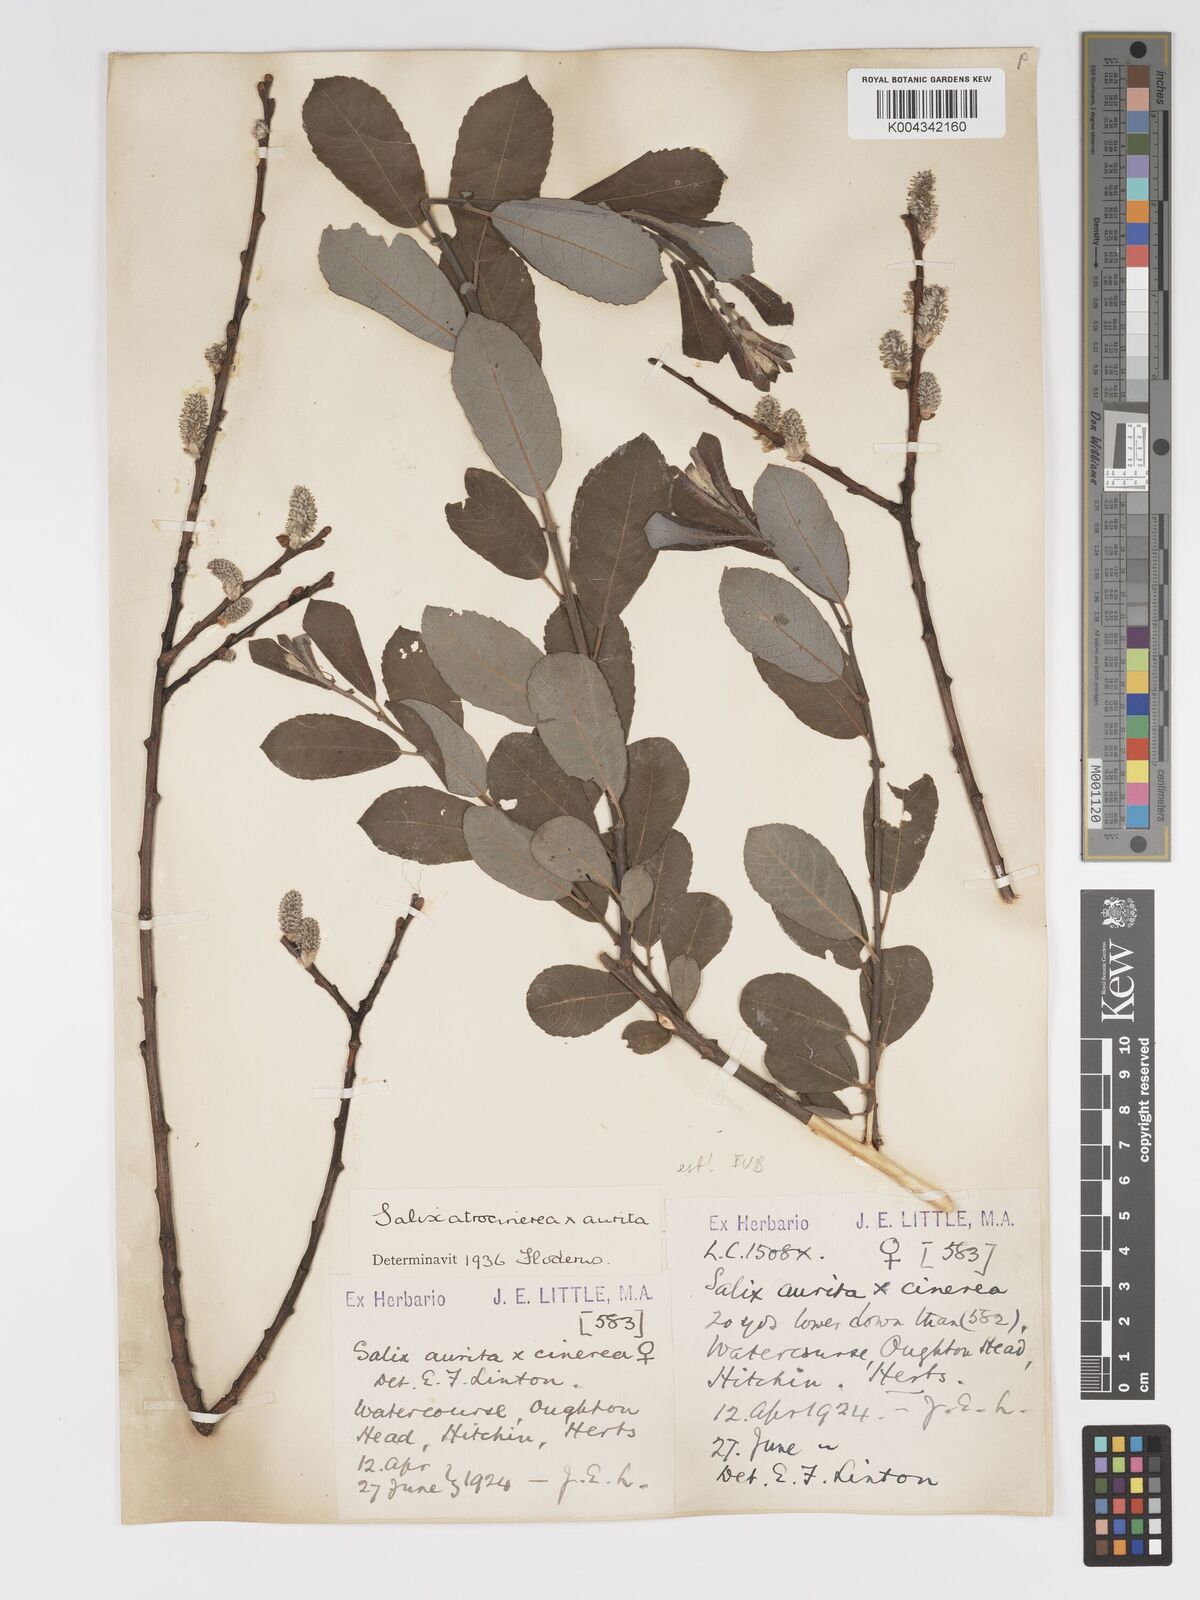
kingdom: Plantae
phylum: Tracheophyta
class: Magnoliopsida
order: Malpighiales
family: Salicaceae
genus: Salix
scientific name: Salix
